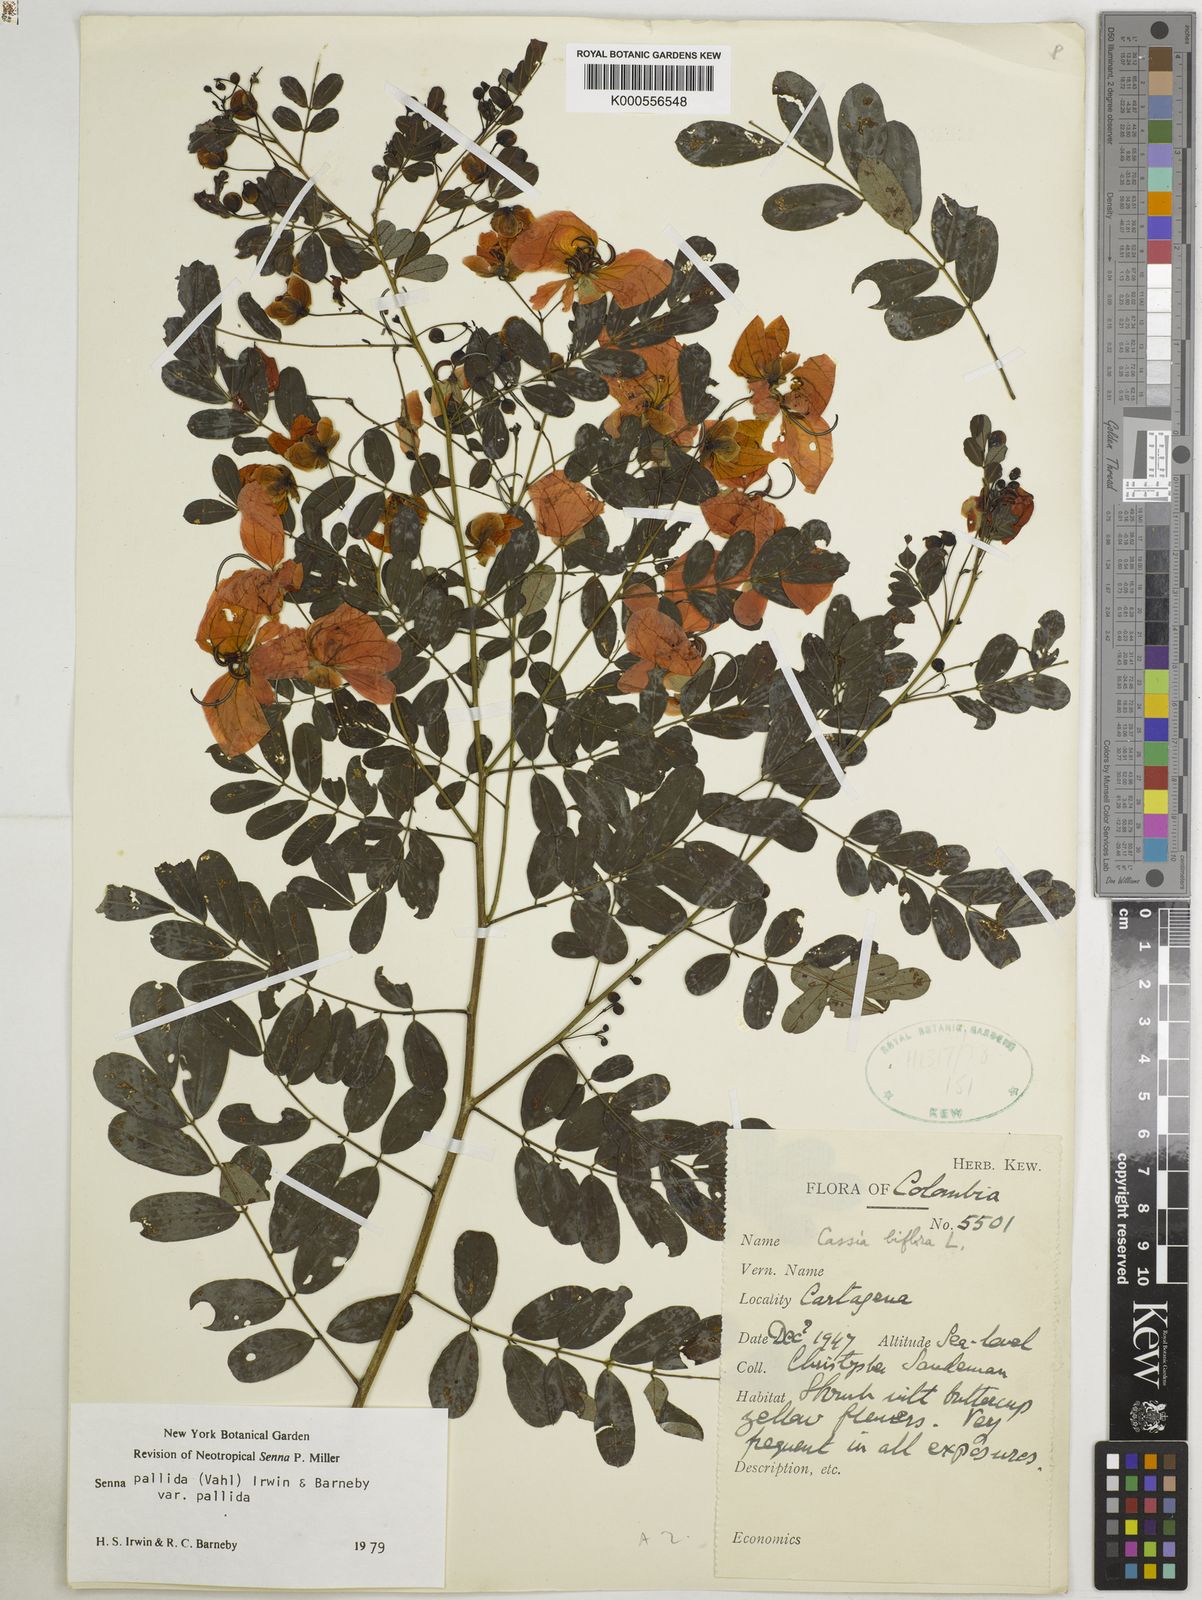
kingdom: Plantae
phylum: Tracheophyta
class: Magnoliopsida
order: Fabales
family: Fabaceae
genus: Senna
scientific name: Senna pallida
